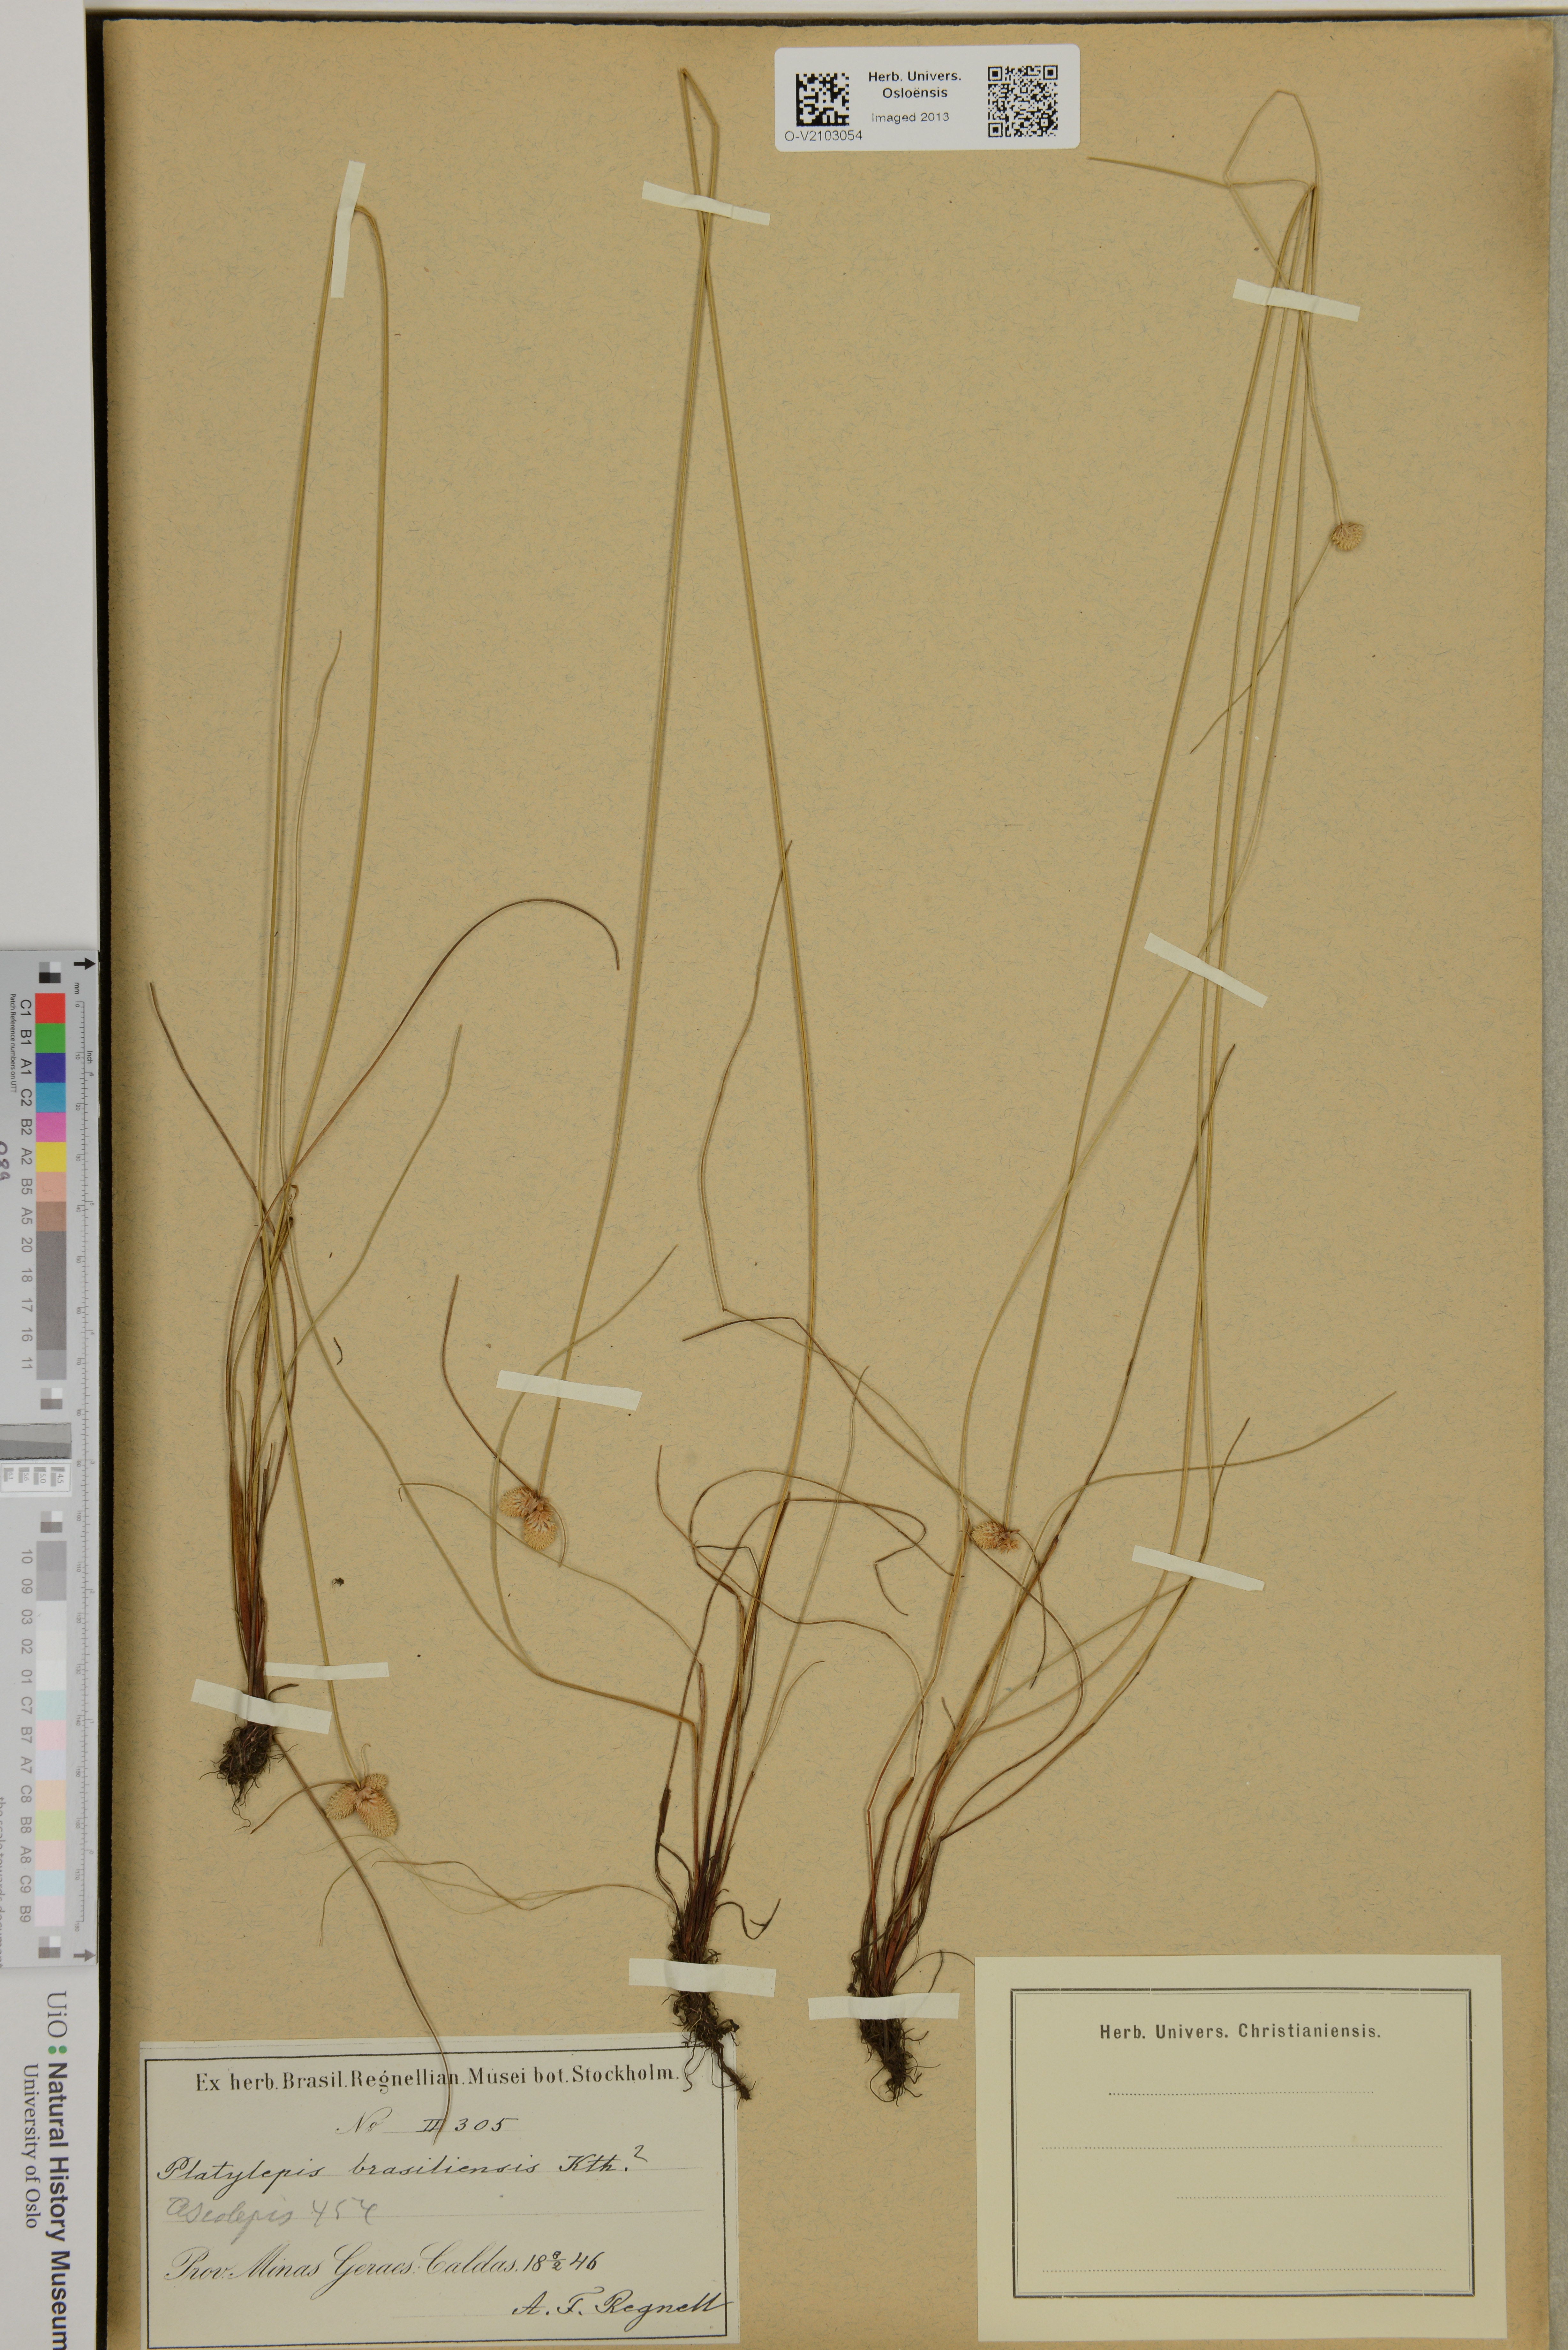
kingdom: Plantae
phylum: Tracheophyta
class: Liliopsida
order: Poales
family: Cyperaceae
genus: Cyperus
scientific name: Cyperus brasiliensis
